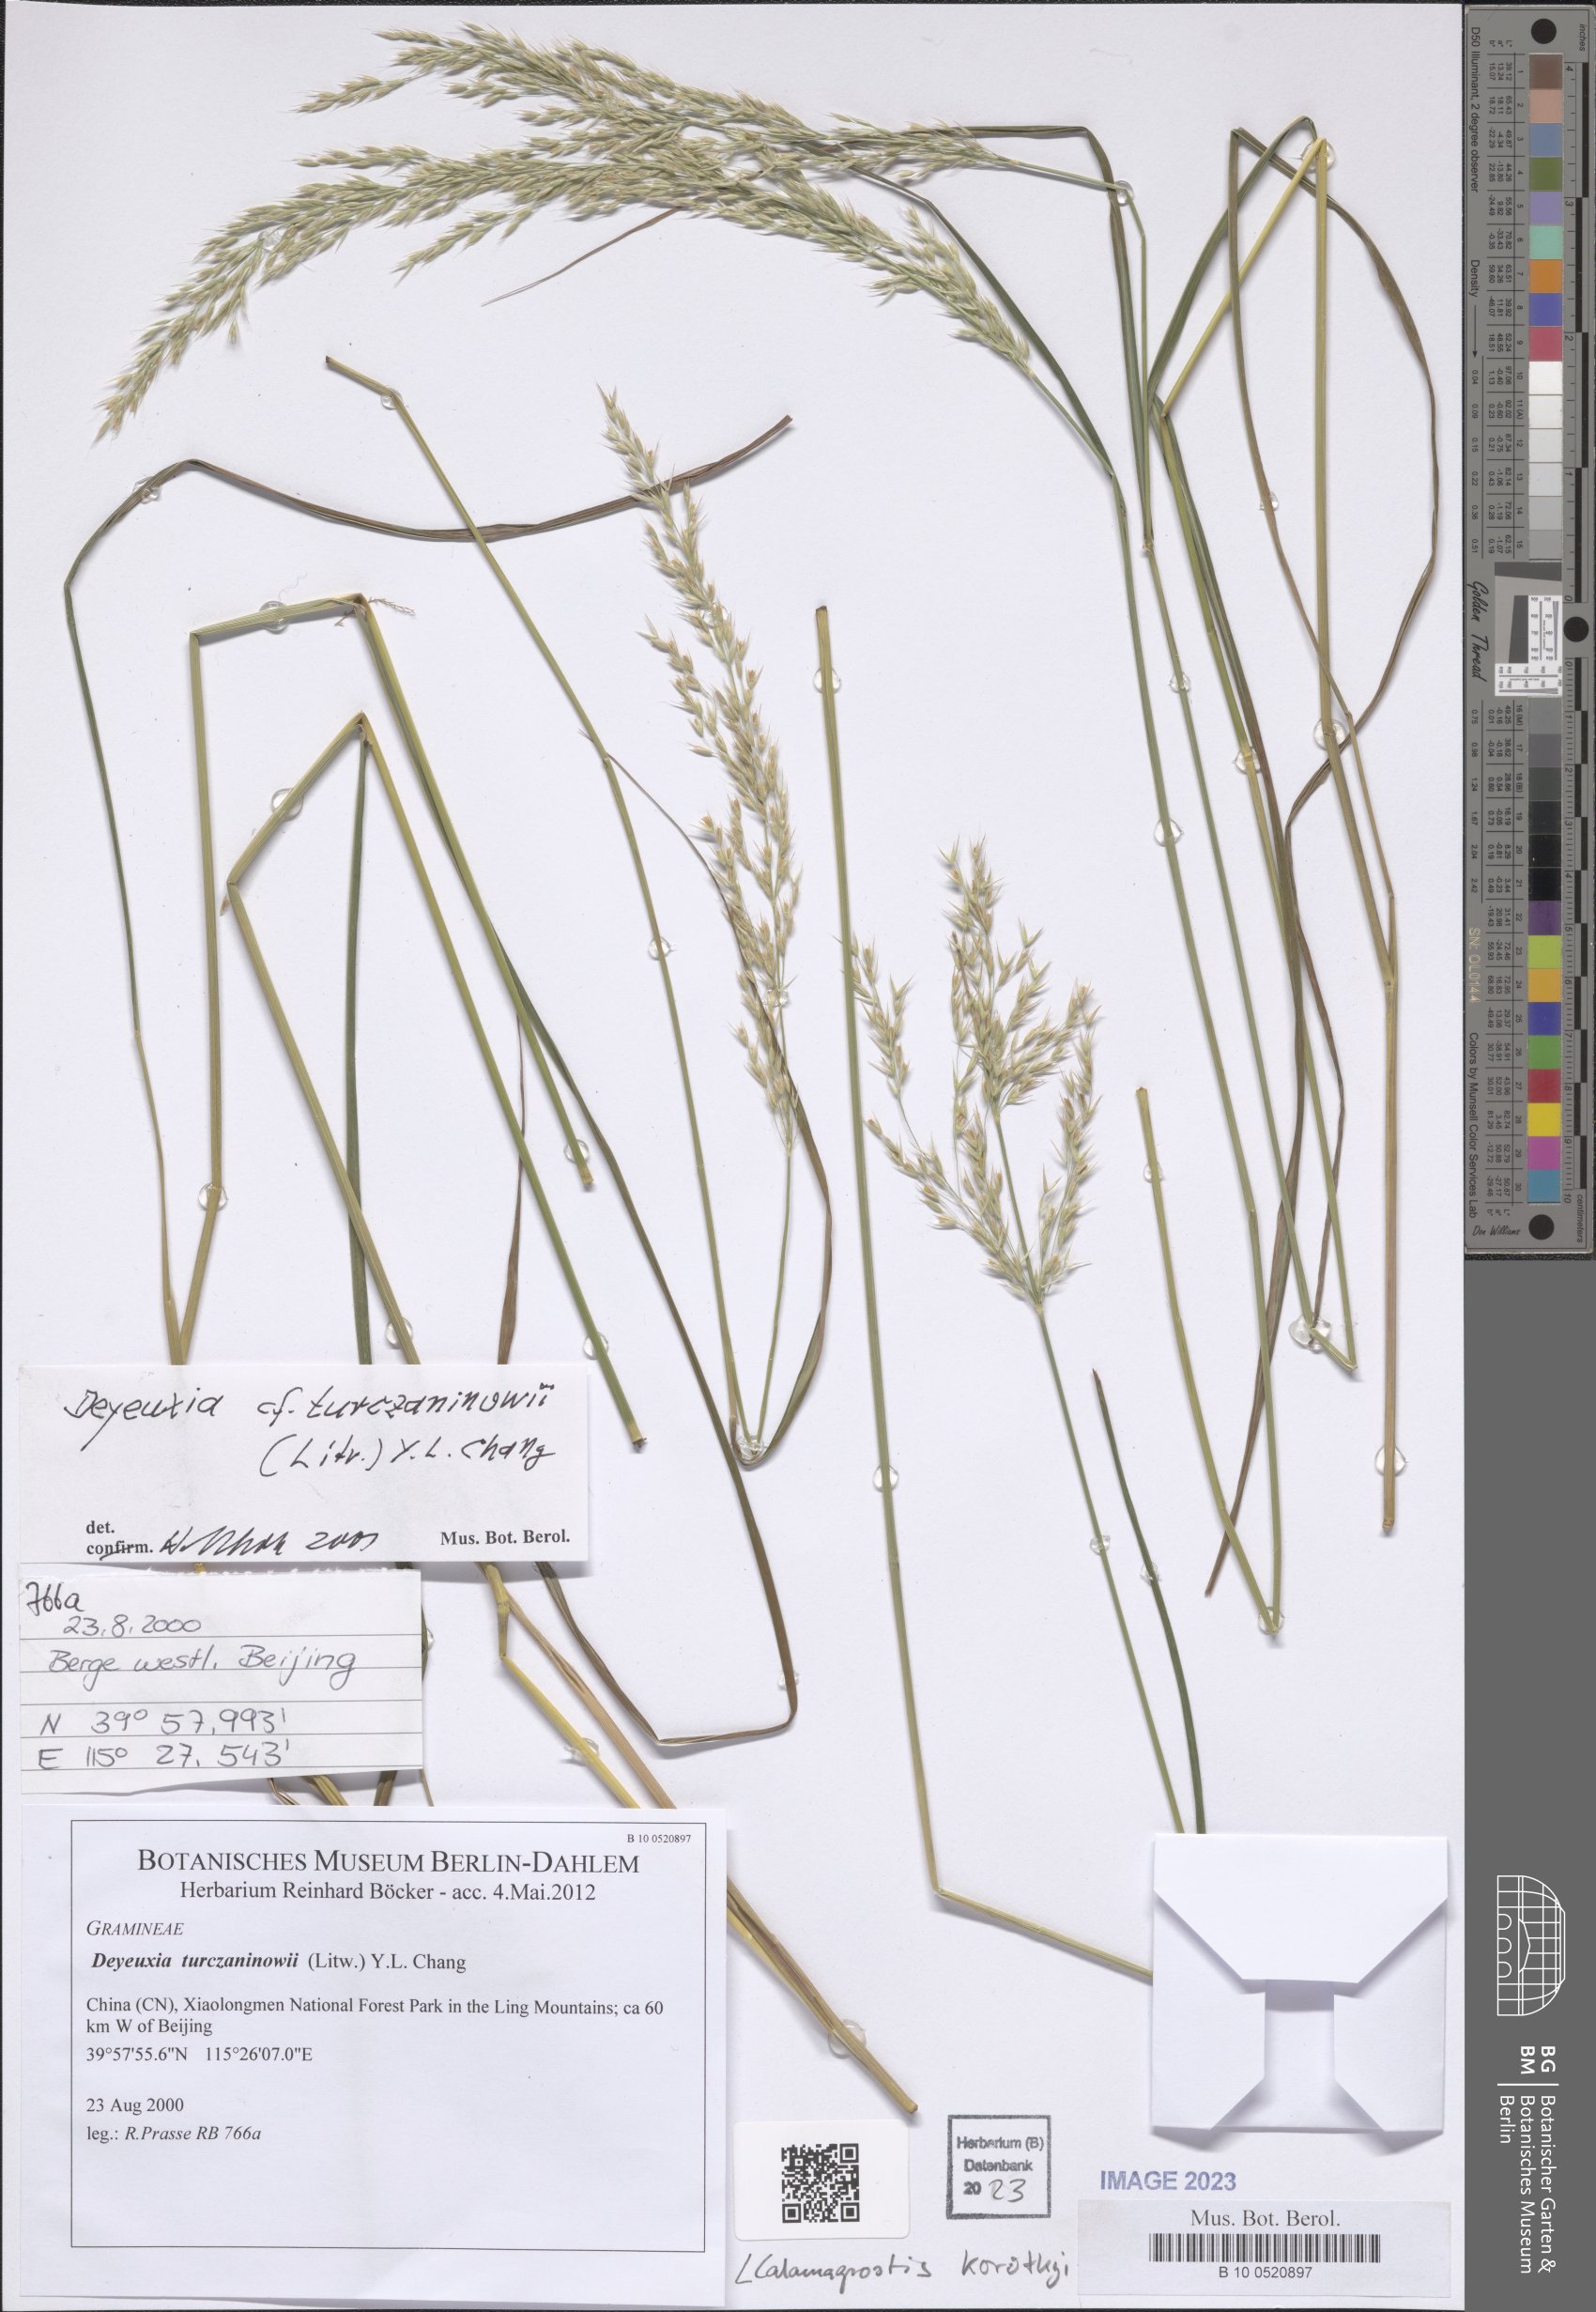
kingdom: Plantae
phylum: Tracheophyta
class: Liliopsida
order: Poales
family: Poaceae
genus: Calamagrostis
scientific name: Calamagrostis korotkyi
